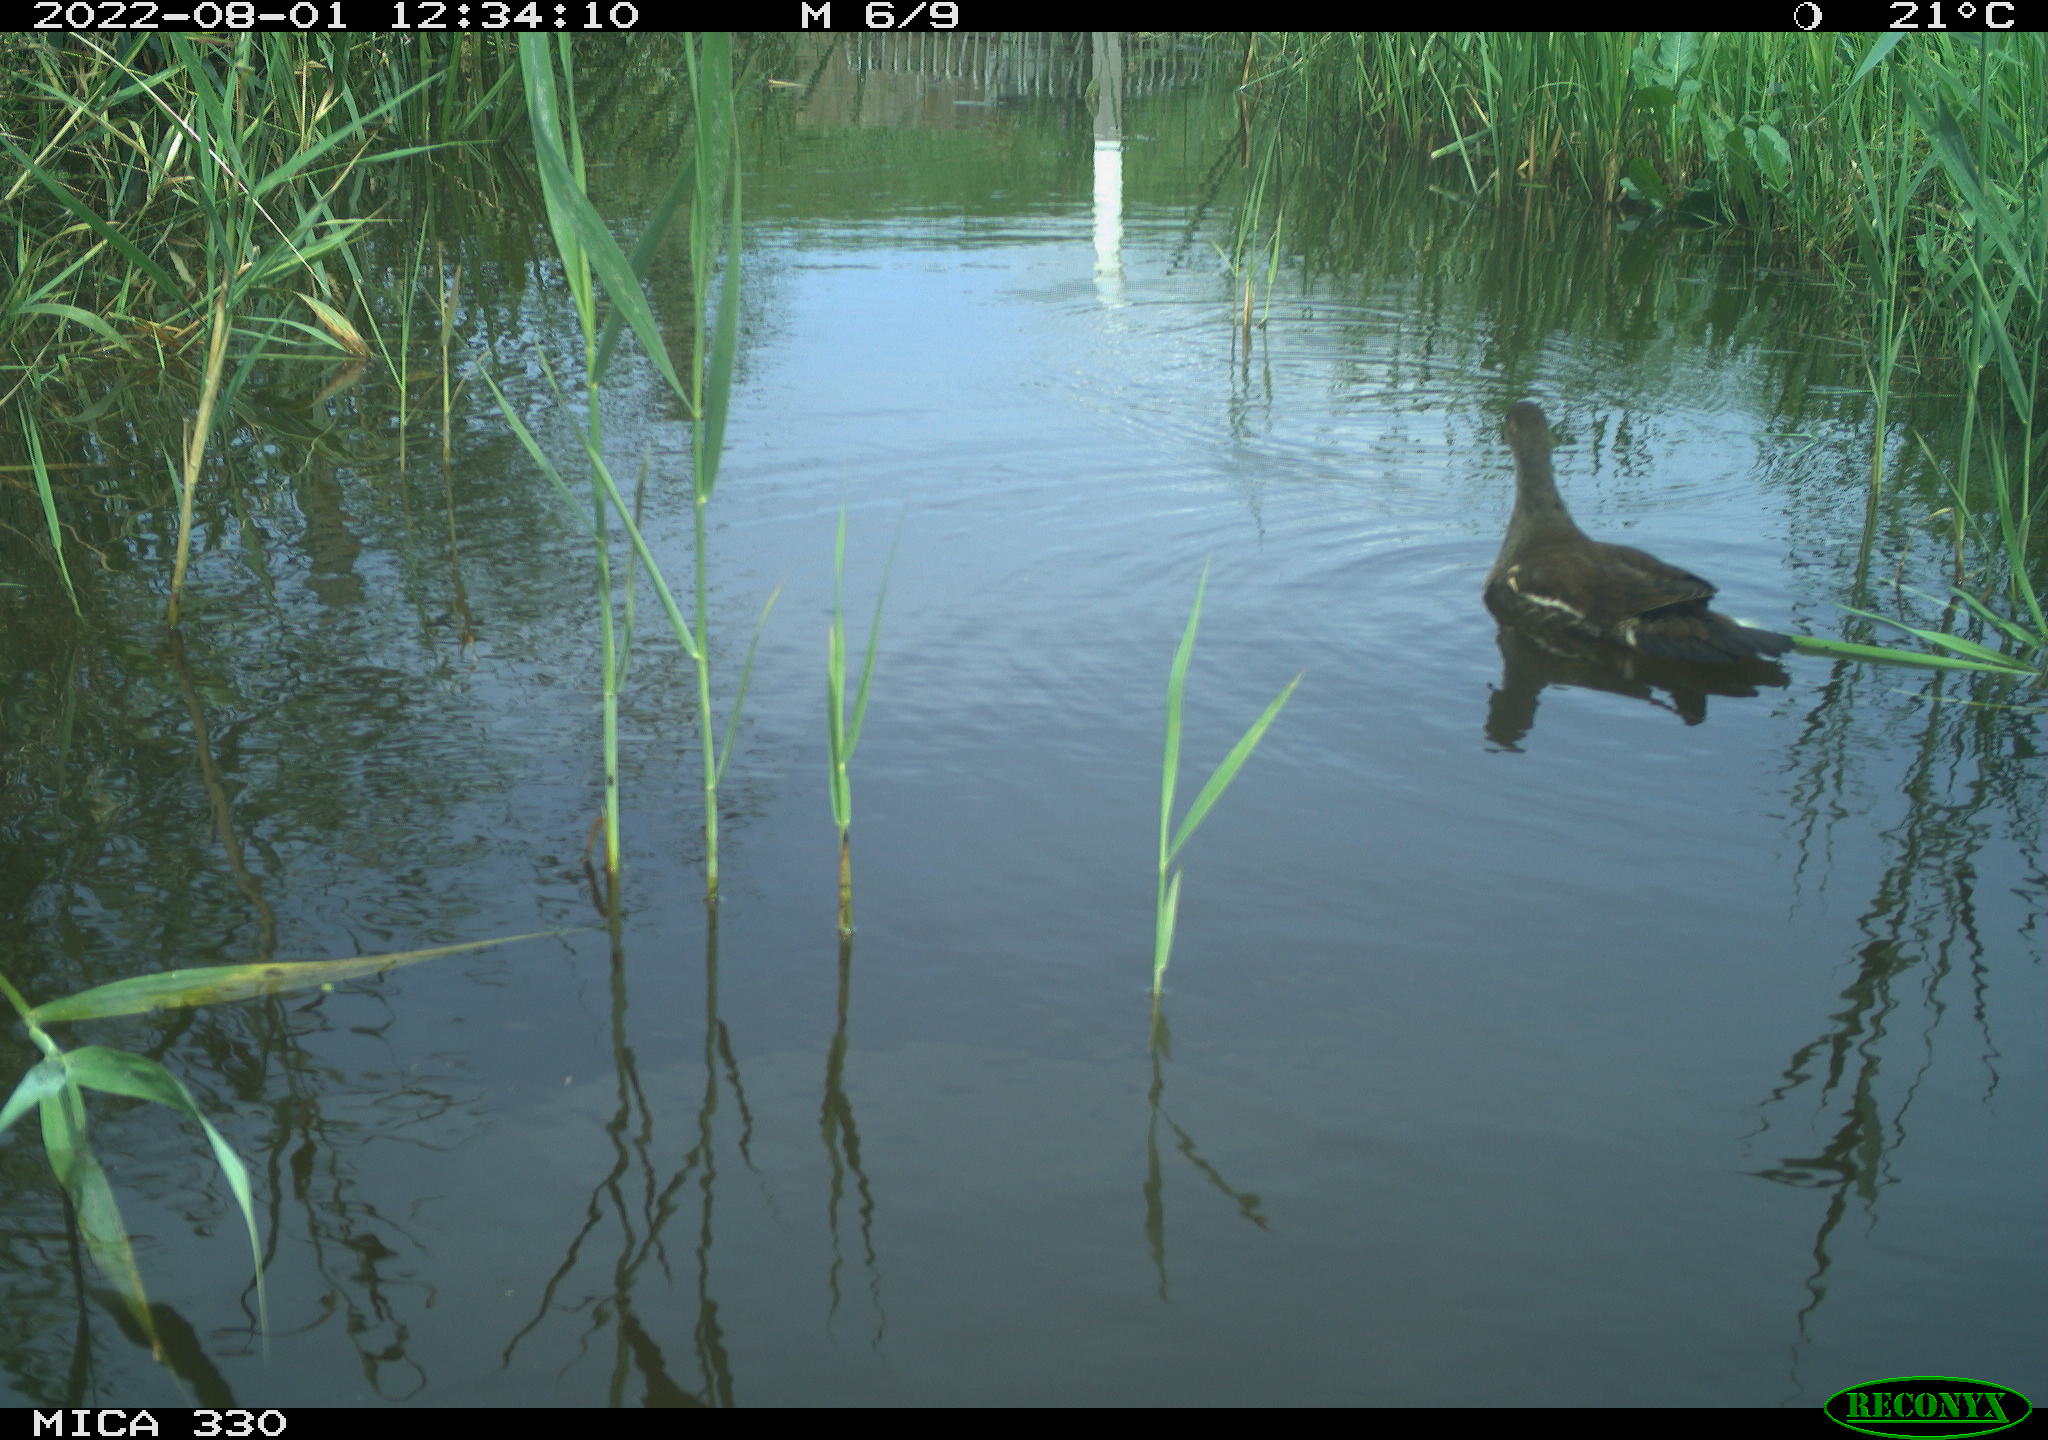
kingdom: Animalia
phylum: Chordata
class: Aves
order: Gruiformes
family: Rallidae
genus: Gallinula
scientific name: Gallinula chloropus
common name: Common moorhen
